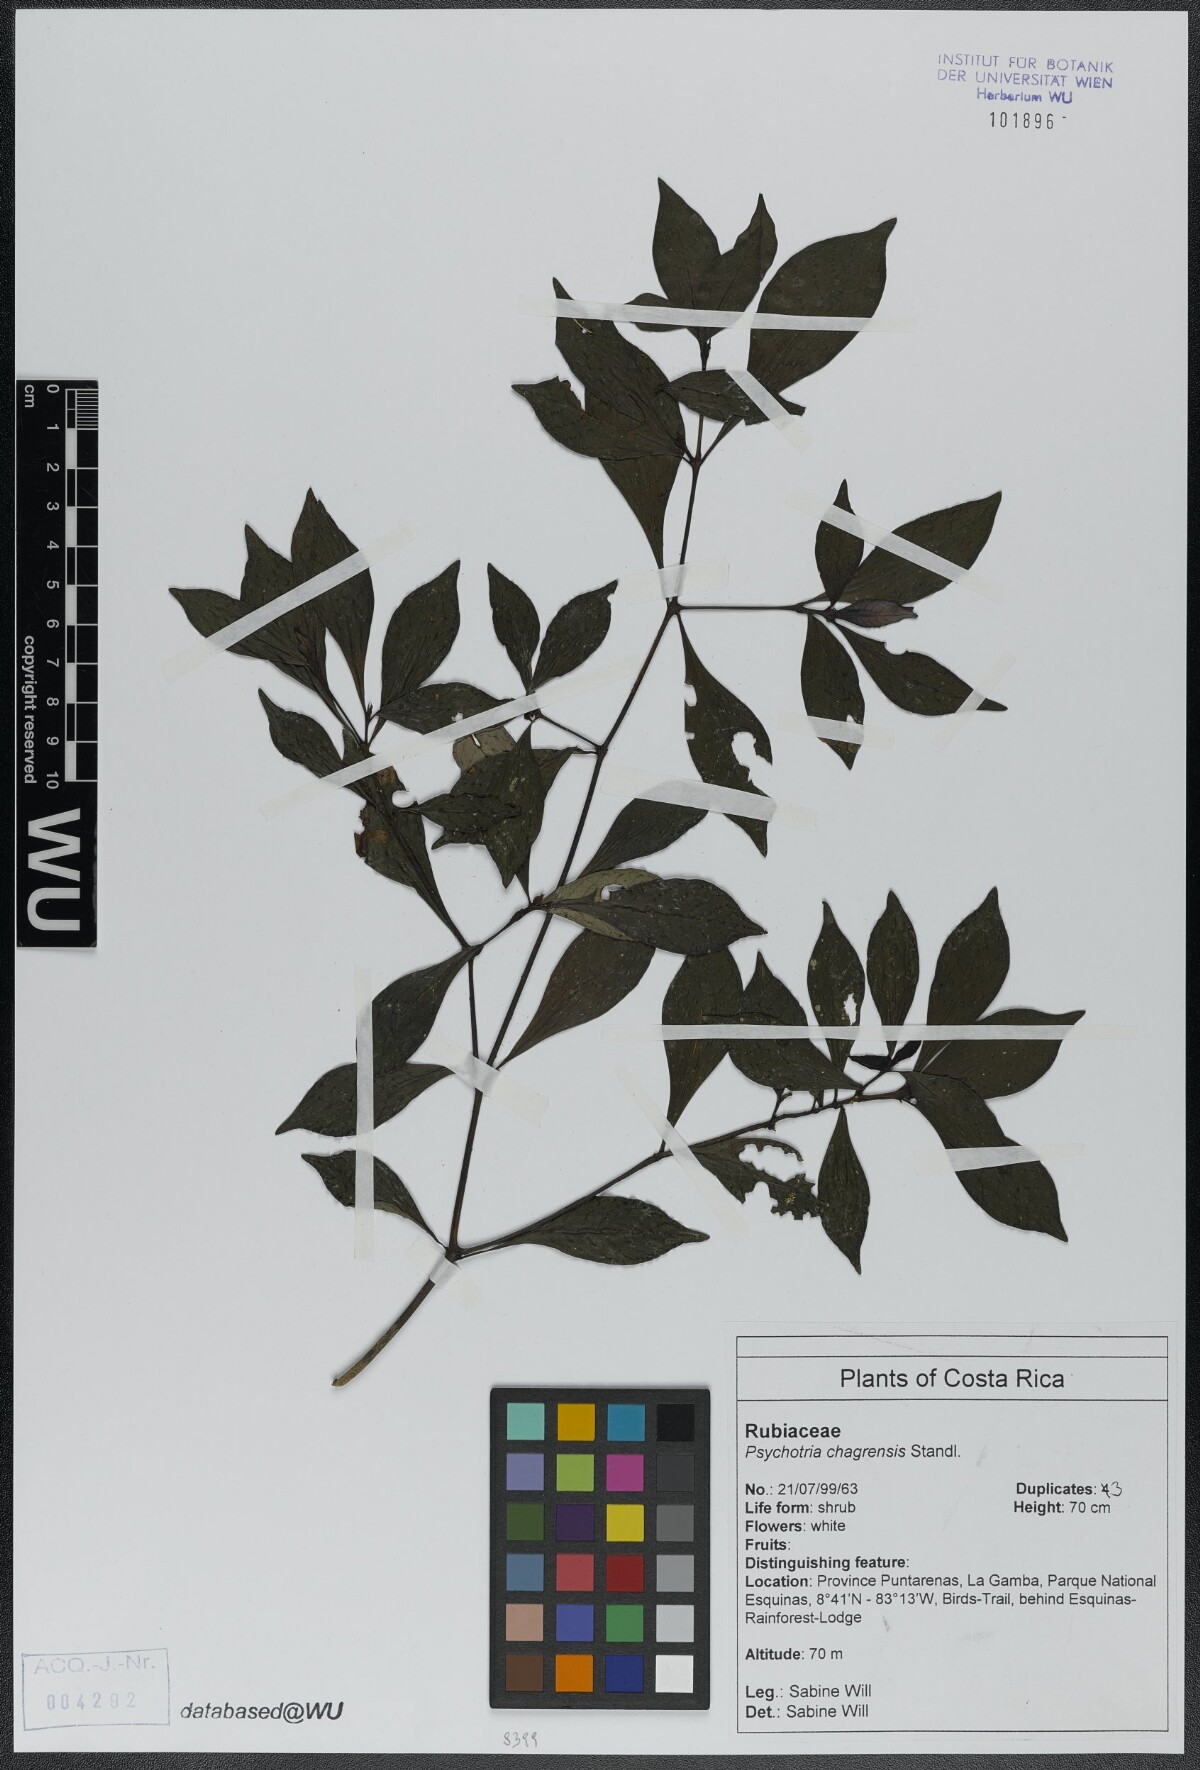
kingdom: Plantae
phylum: Tracheophyta
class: Magnoliopsida
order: Gentianales
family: Rubiaceae
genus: Psychotria
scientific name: Psychotria chagrensis
